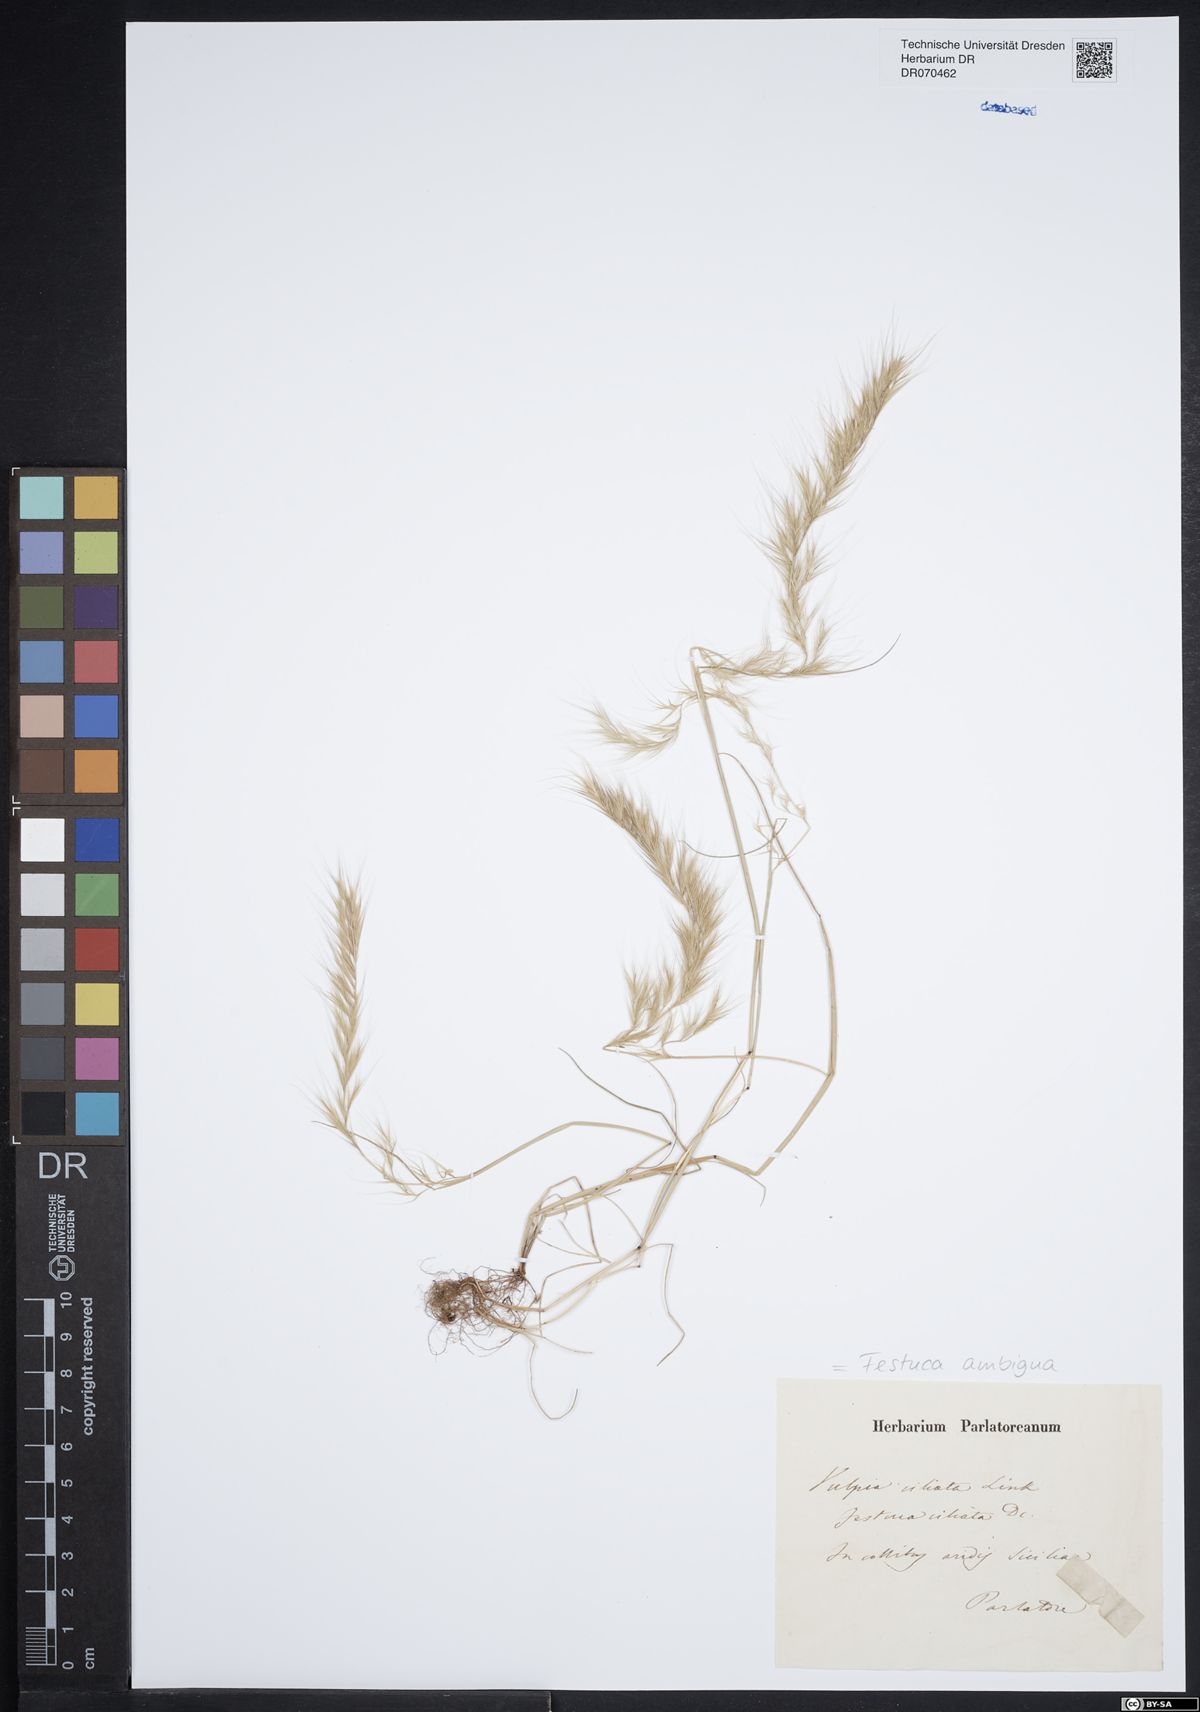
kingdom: Plantae
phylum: Tracheophyta
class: Liliopsida
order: Poales
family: Poaceae
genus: Festuca
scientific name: Festuca ambigua
